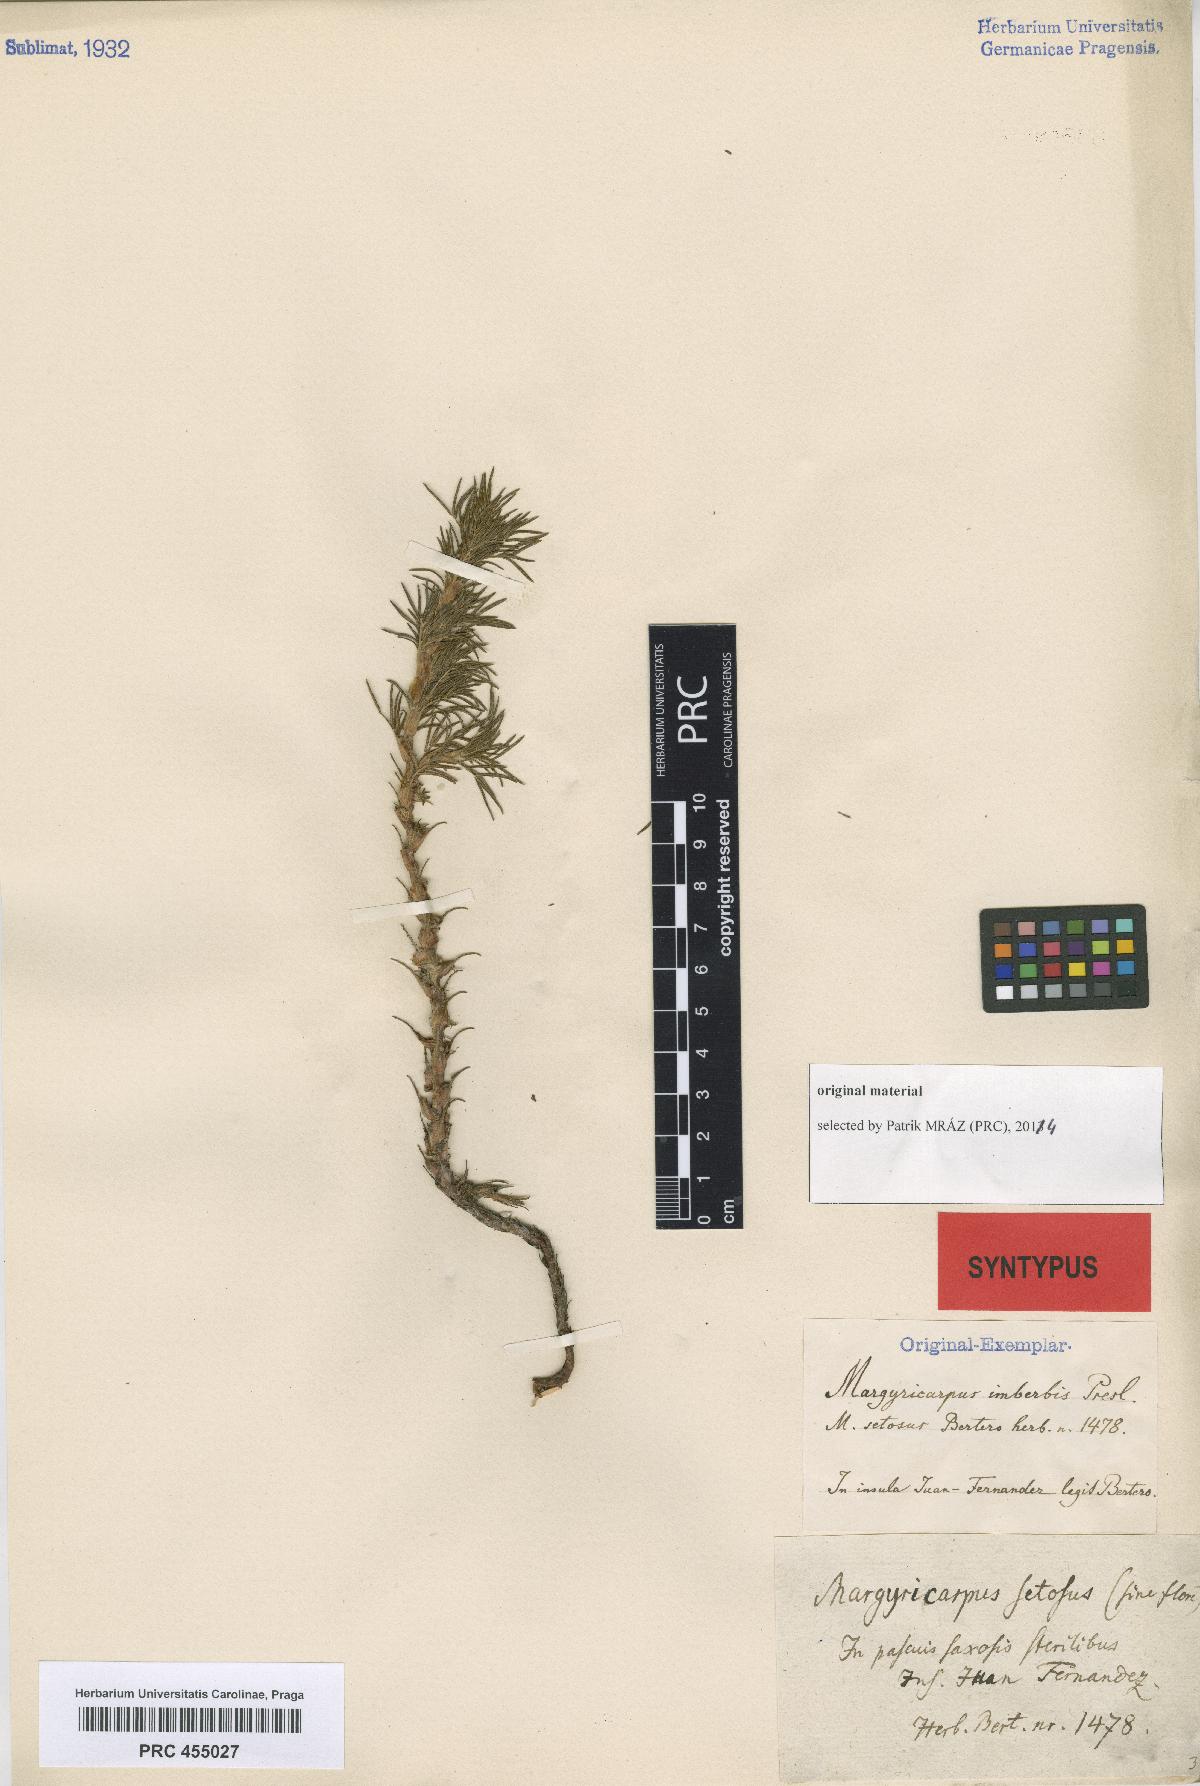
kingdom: Plantae
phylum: Tracheophyta
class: Magnoliopsida
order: Rosales
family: Rosaceae
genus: Margyricarpus
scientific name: Margyricarpus pinnatus
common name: Pearlfruit
